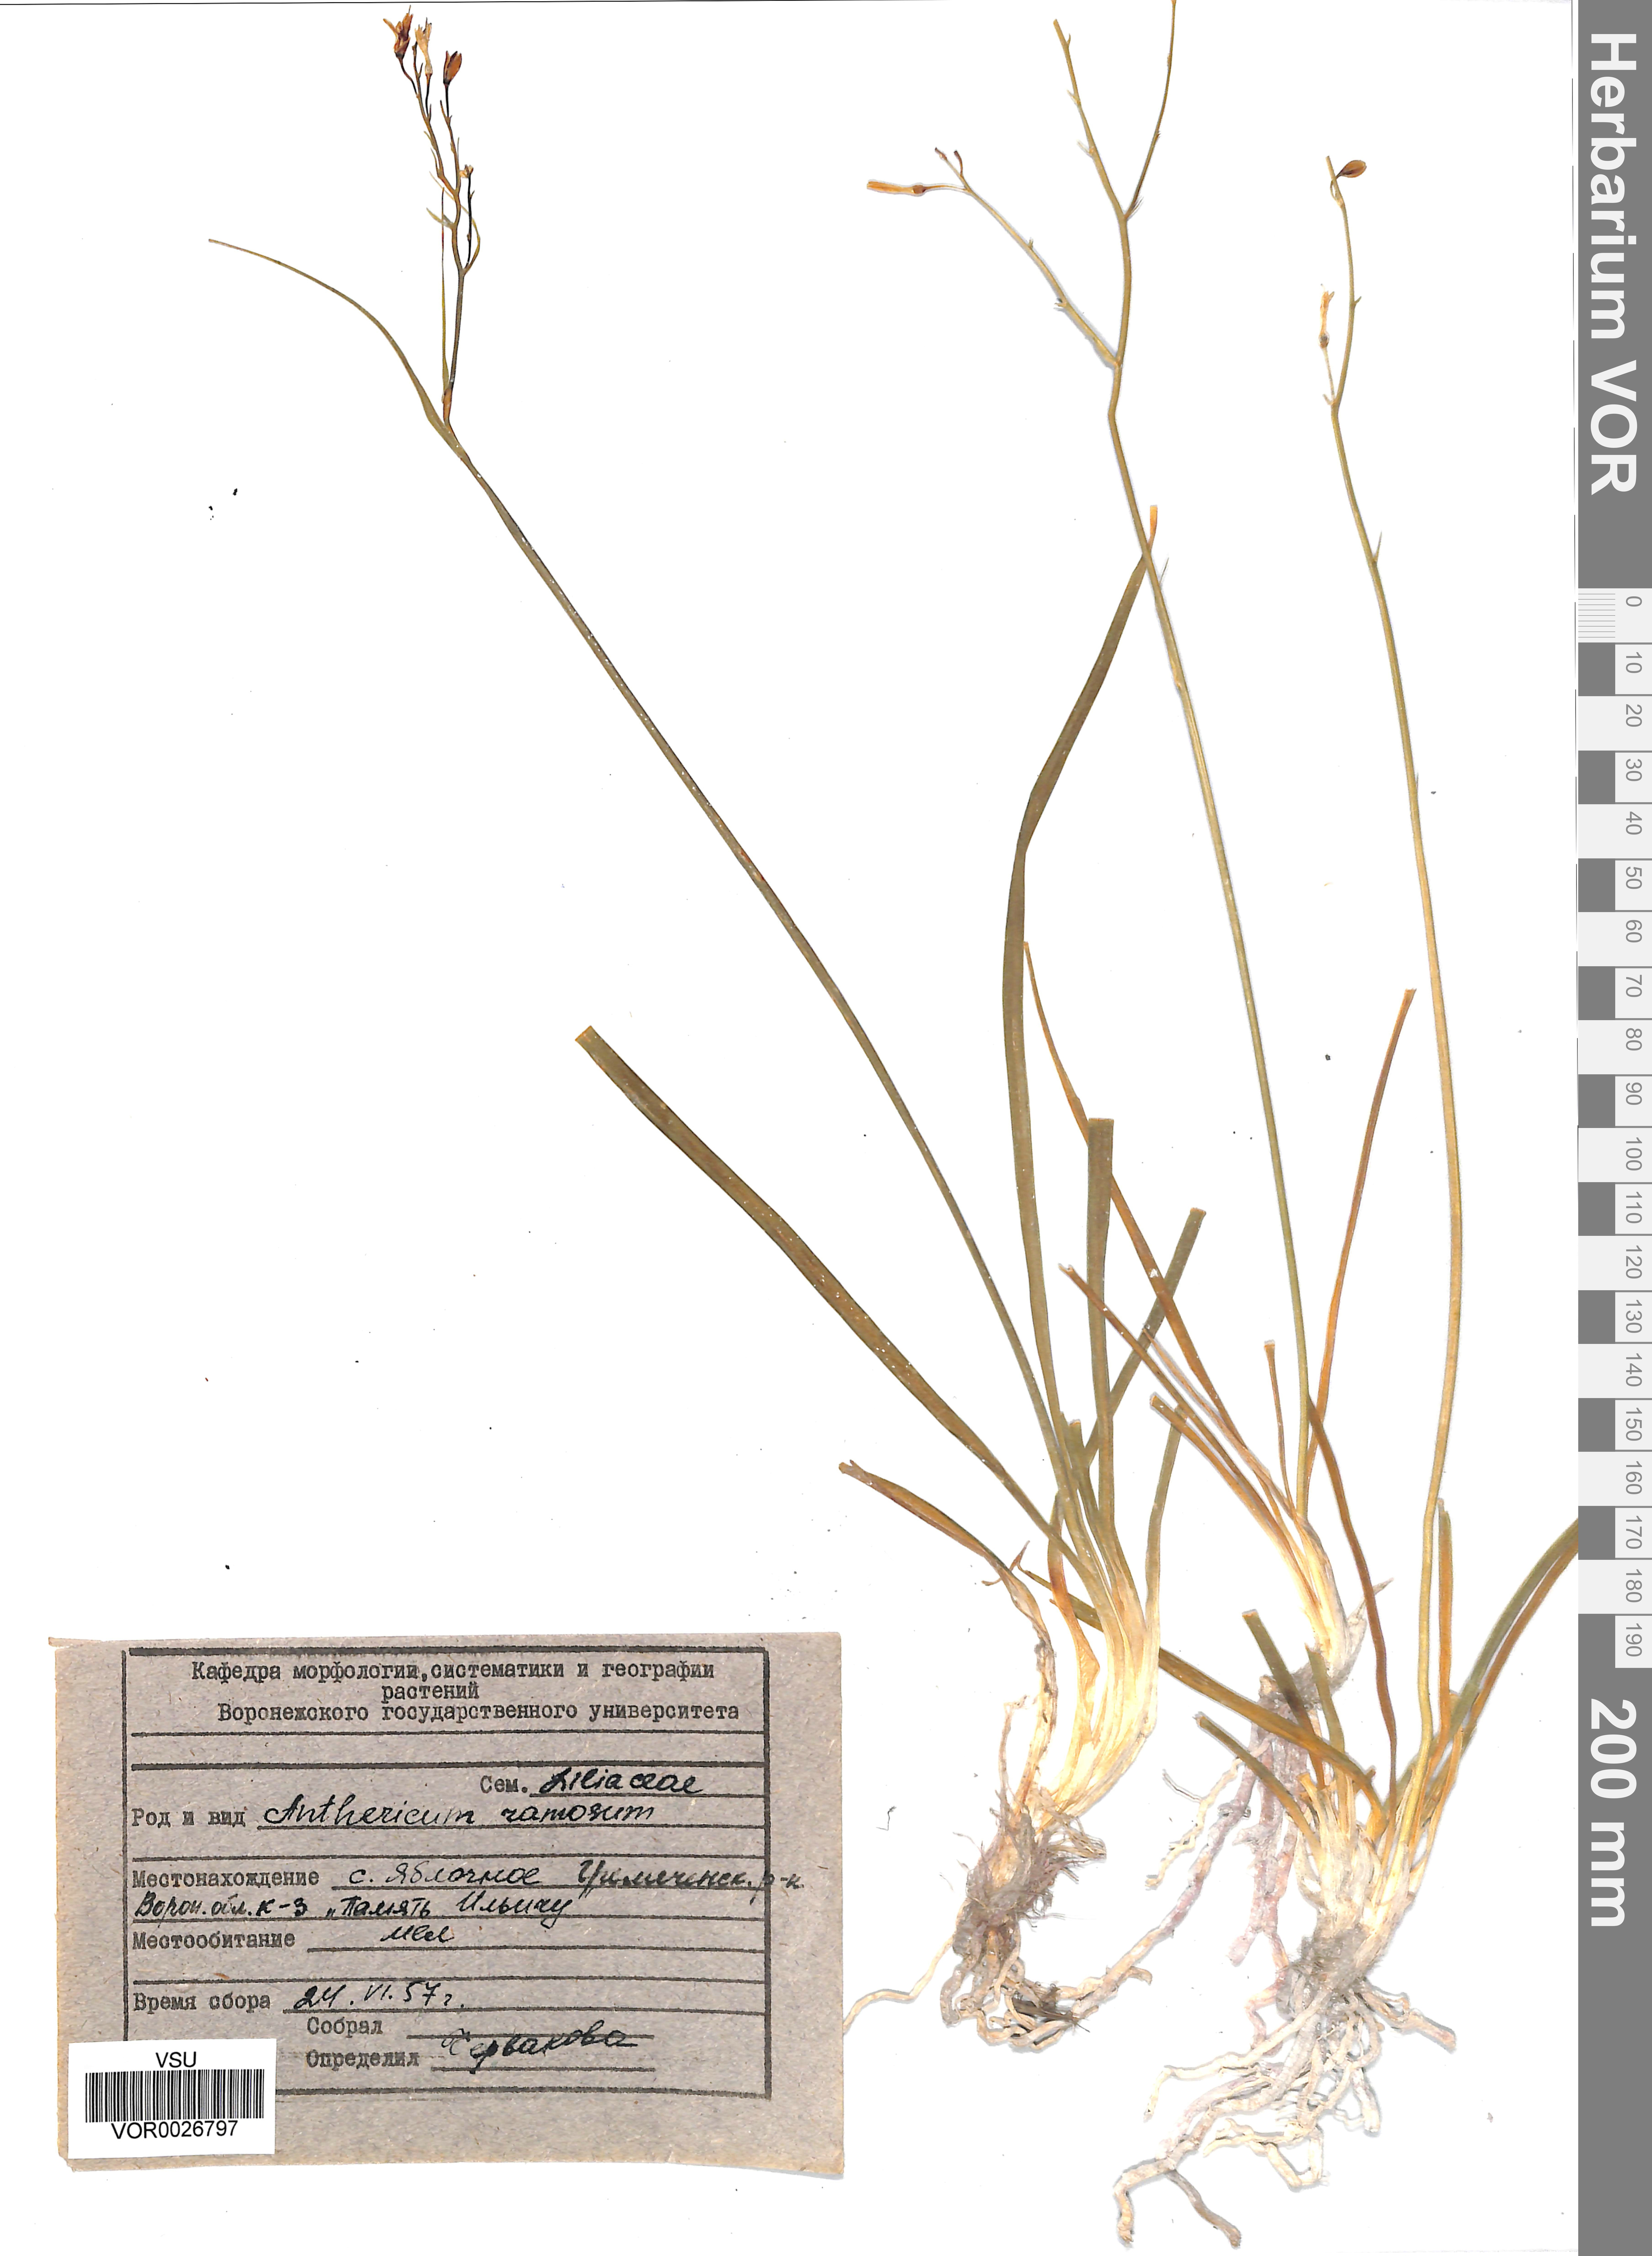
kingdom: Plantae
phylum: Tracheophyta
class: Liliopsida
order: Asparagales
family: Asparagaceae
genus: Anthericum
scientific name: Anthericum ramosum
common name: Branched st. bernard's-lily
